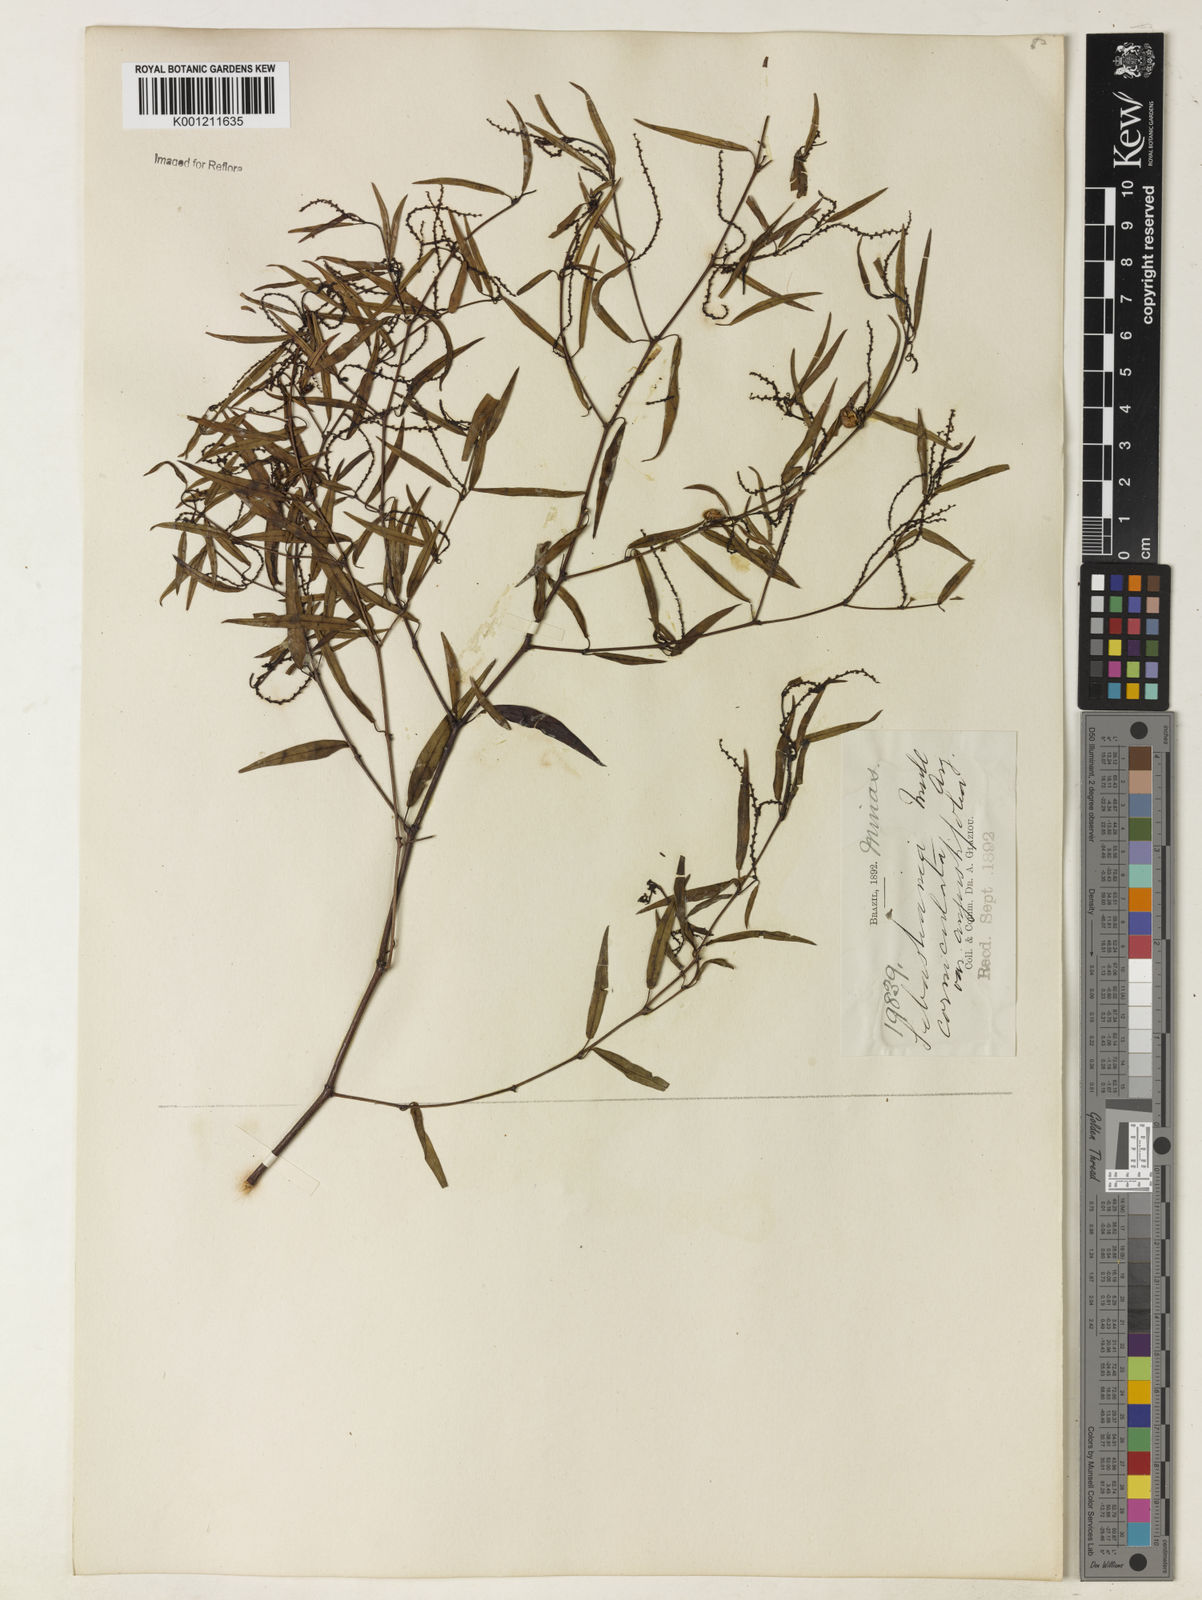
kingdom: Plantae
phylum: Tracheophyta
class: Magnoliopsida
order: Malpighiales
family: Euphorbiaceae
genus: Microstachys
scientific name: Microstachys
